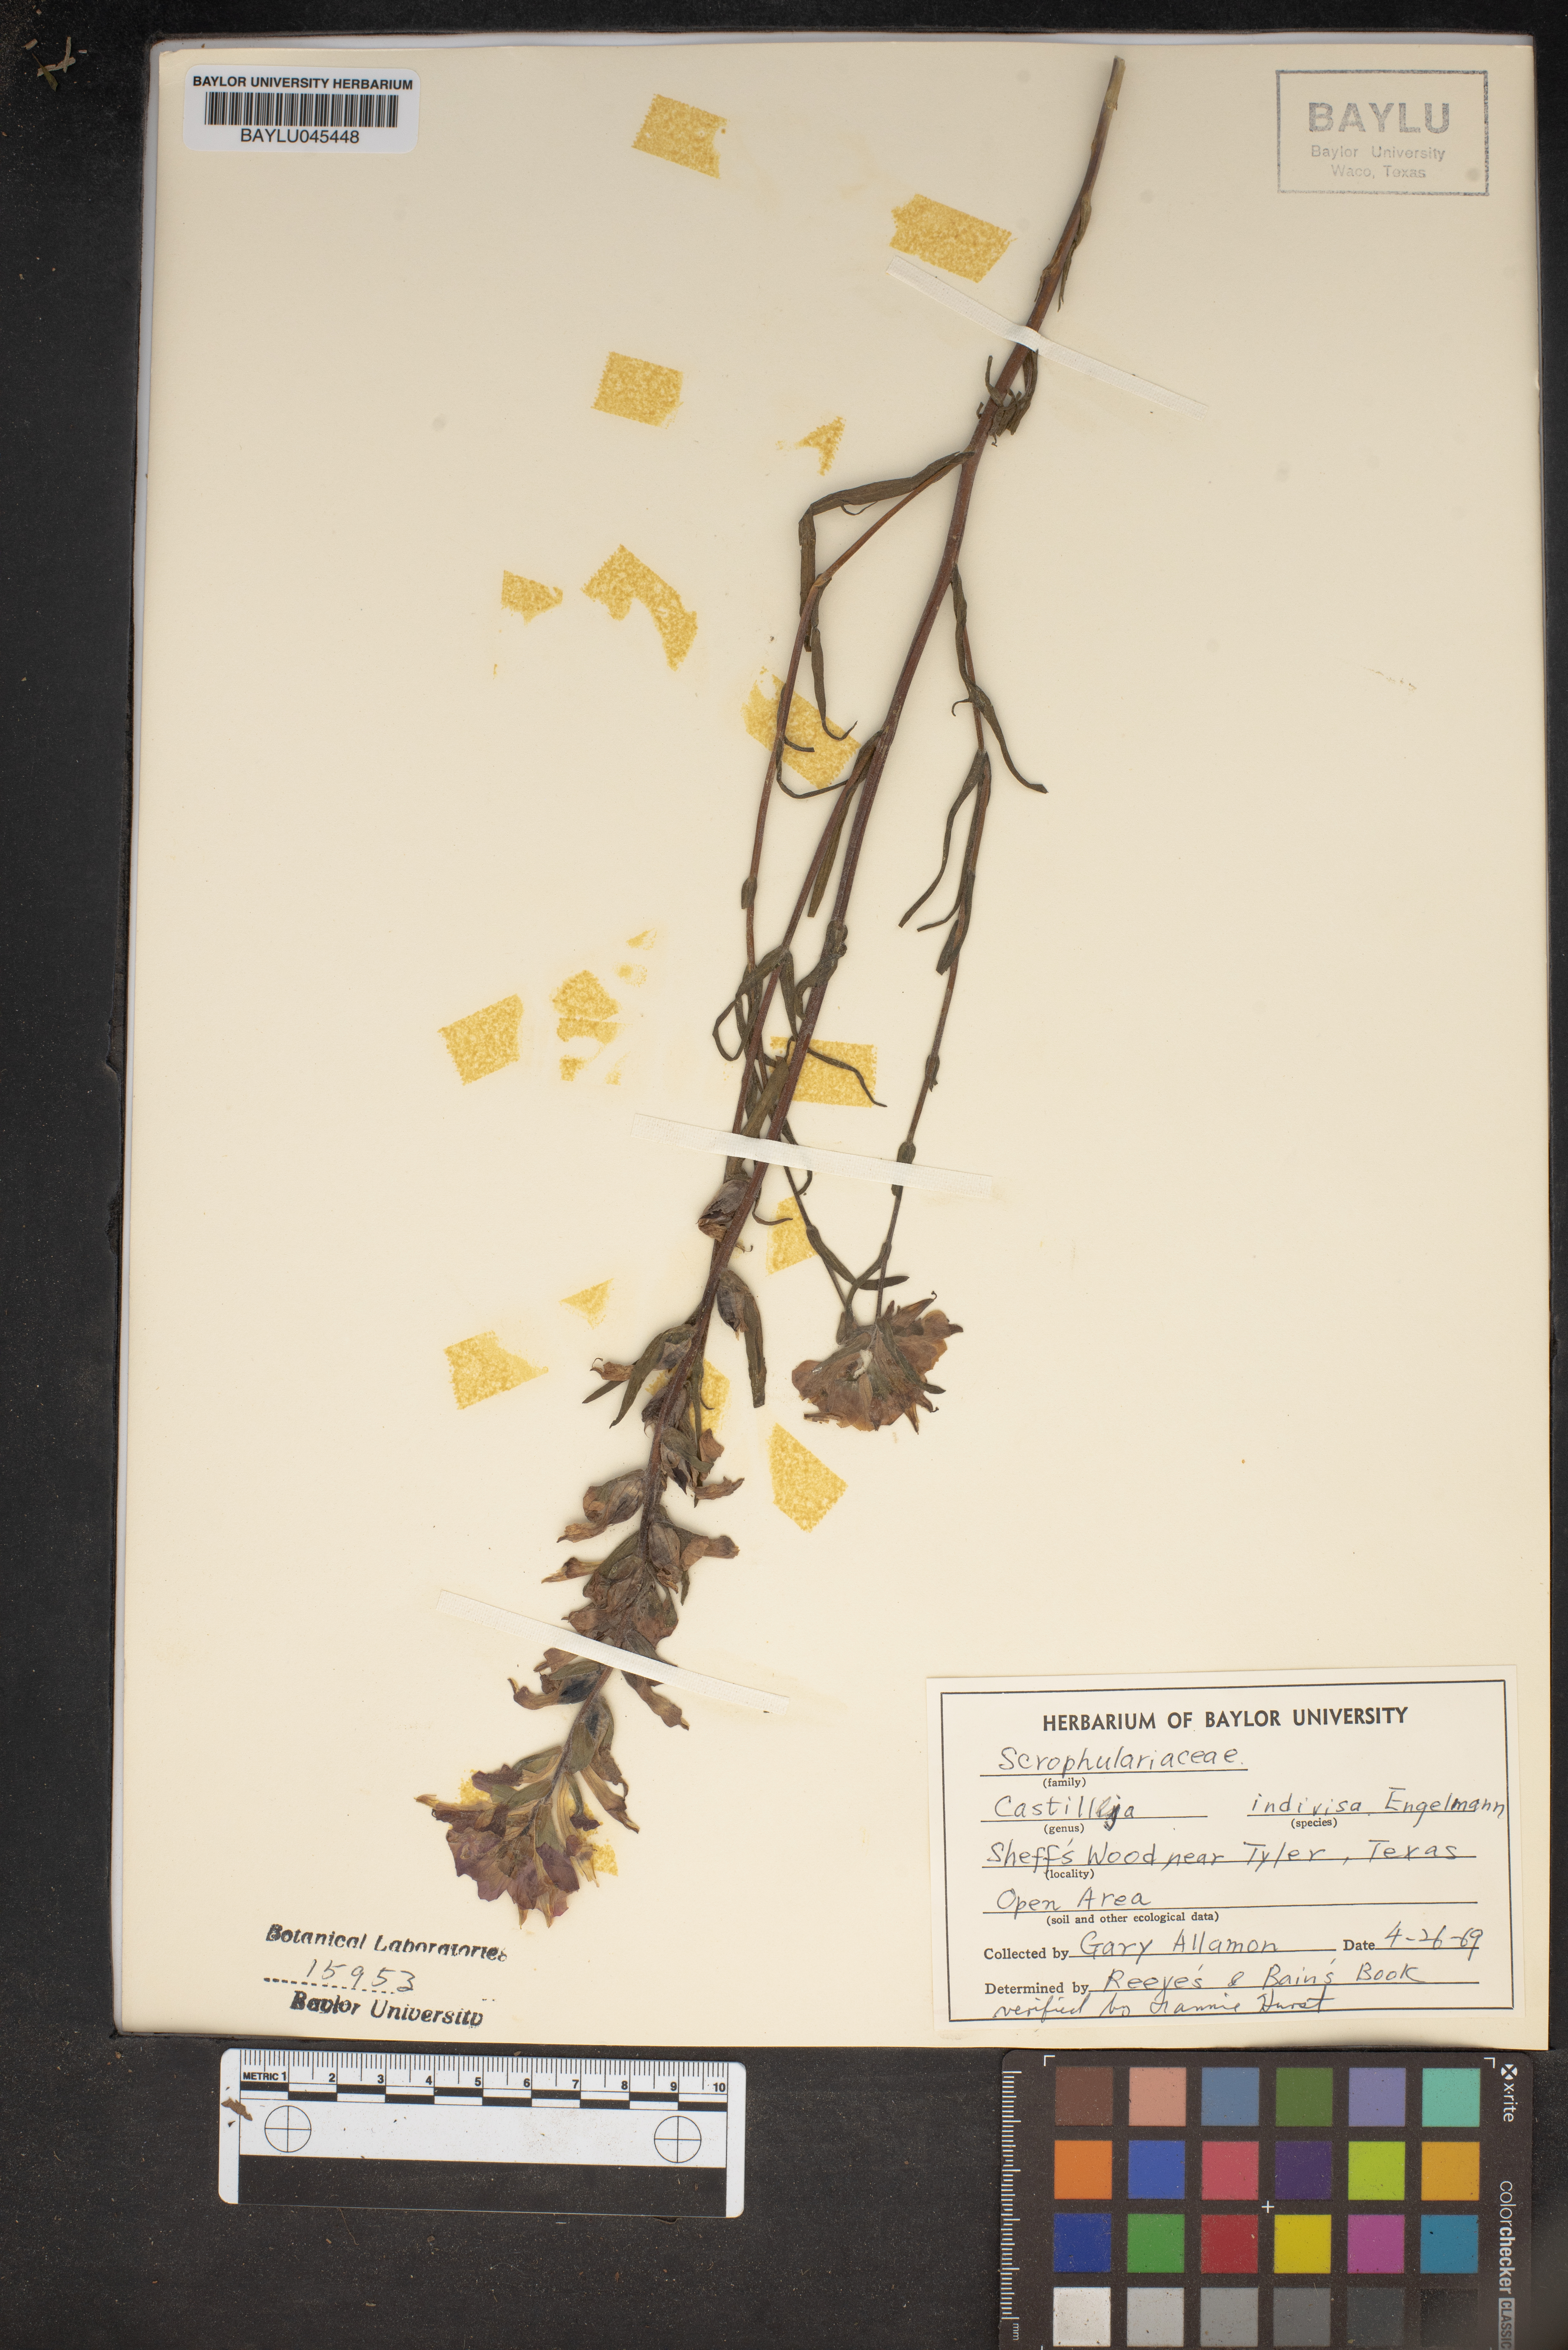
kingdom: Plantae
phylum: Tracheophyta
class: Magnoliopsida
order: Lamiales
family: Orobanchaceae
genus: Castilleja
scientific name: Castilleja indivisa
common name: Texas paintbrush
